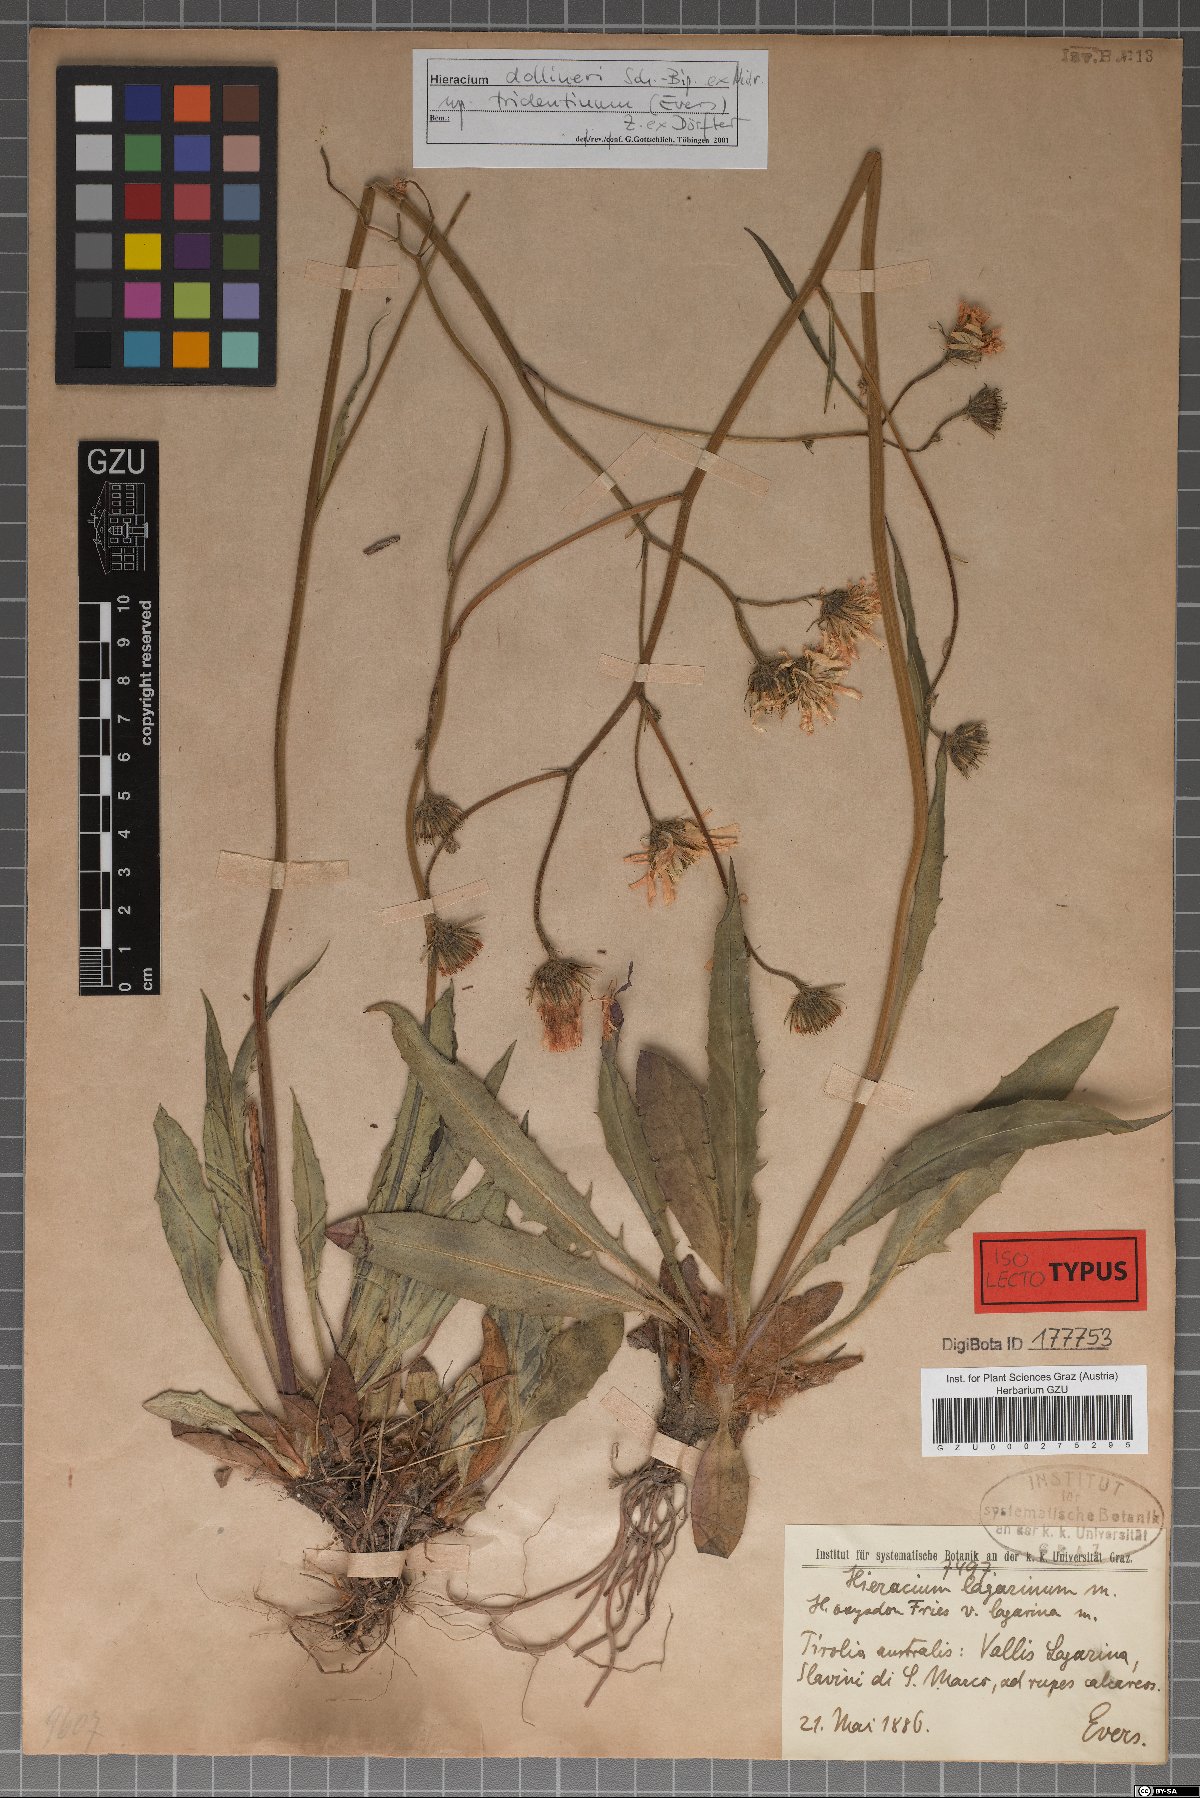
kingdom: Plantae
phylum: Tracheophyta
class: Magnoliopsida
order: Asterales
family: Asteraceae
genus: Hieracium
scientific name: Hieracium dollineri
